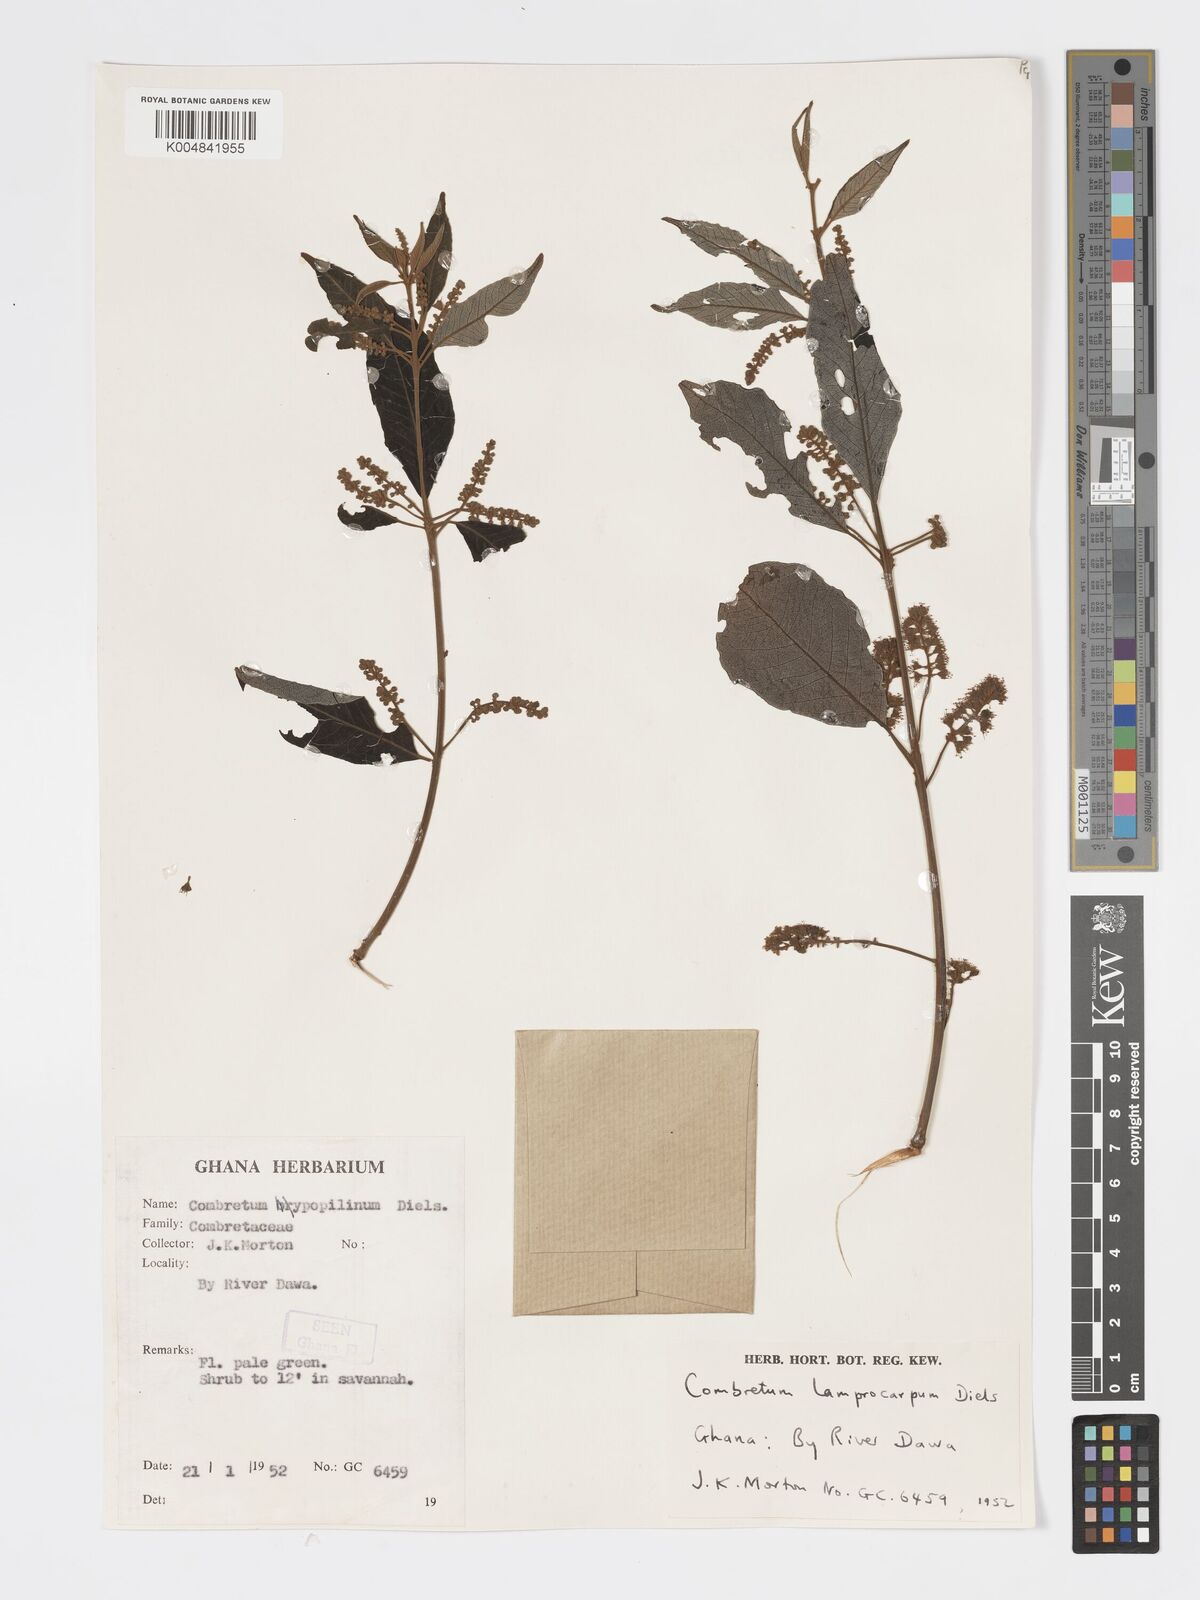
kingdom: Plantae
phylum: Tracheophyta
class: Magnoliopsida
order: Myrtales
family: Combretaceae
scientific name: Combretaceae
